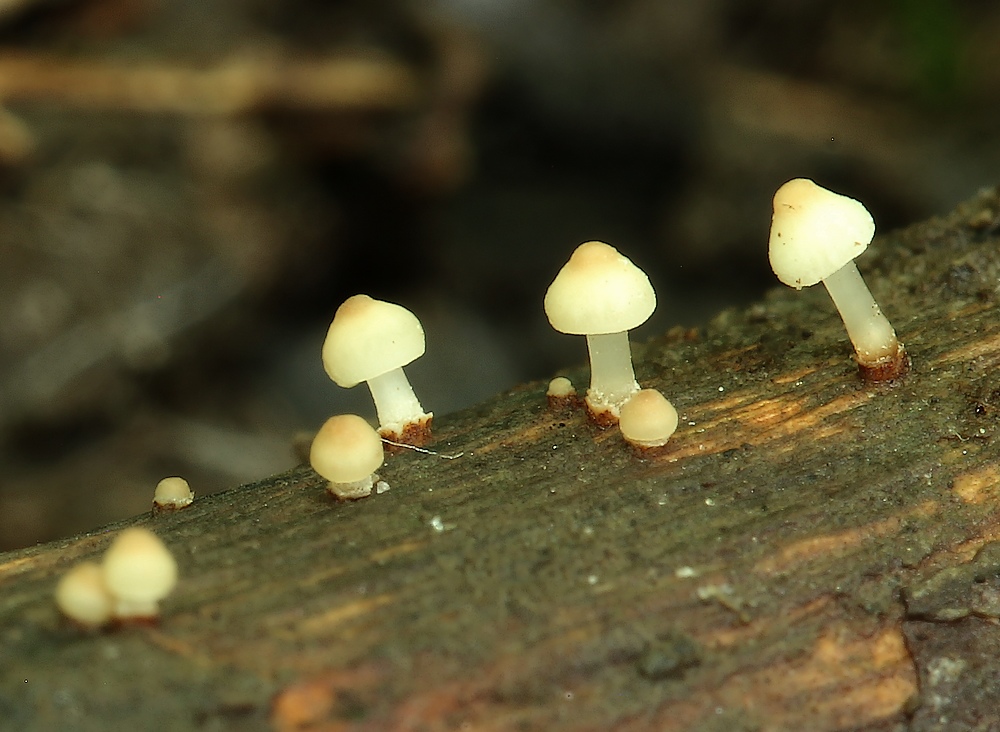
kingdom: Fungi
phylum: Basidiomycota
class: Agaricomycetes
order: Agaricales
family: Omphalotaceae
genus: Marasmiellus
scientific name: Marasmiellus
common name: bruskhat
